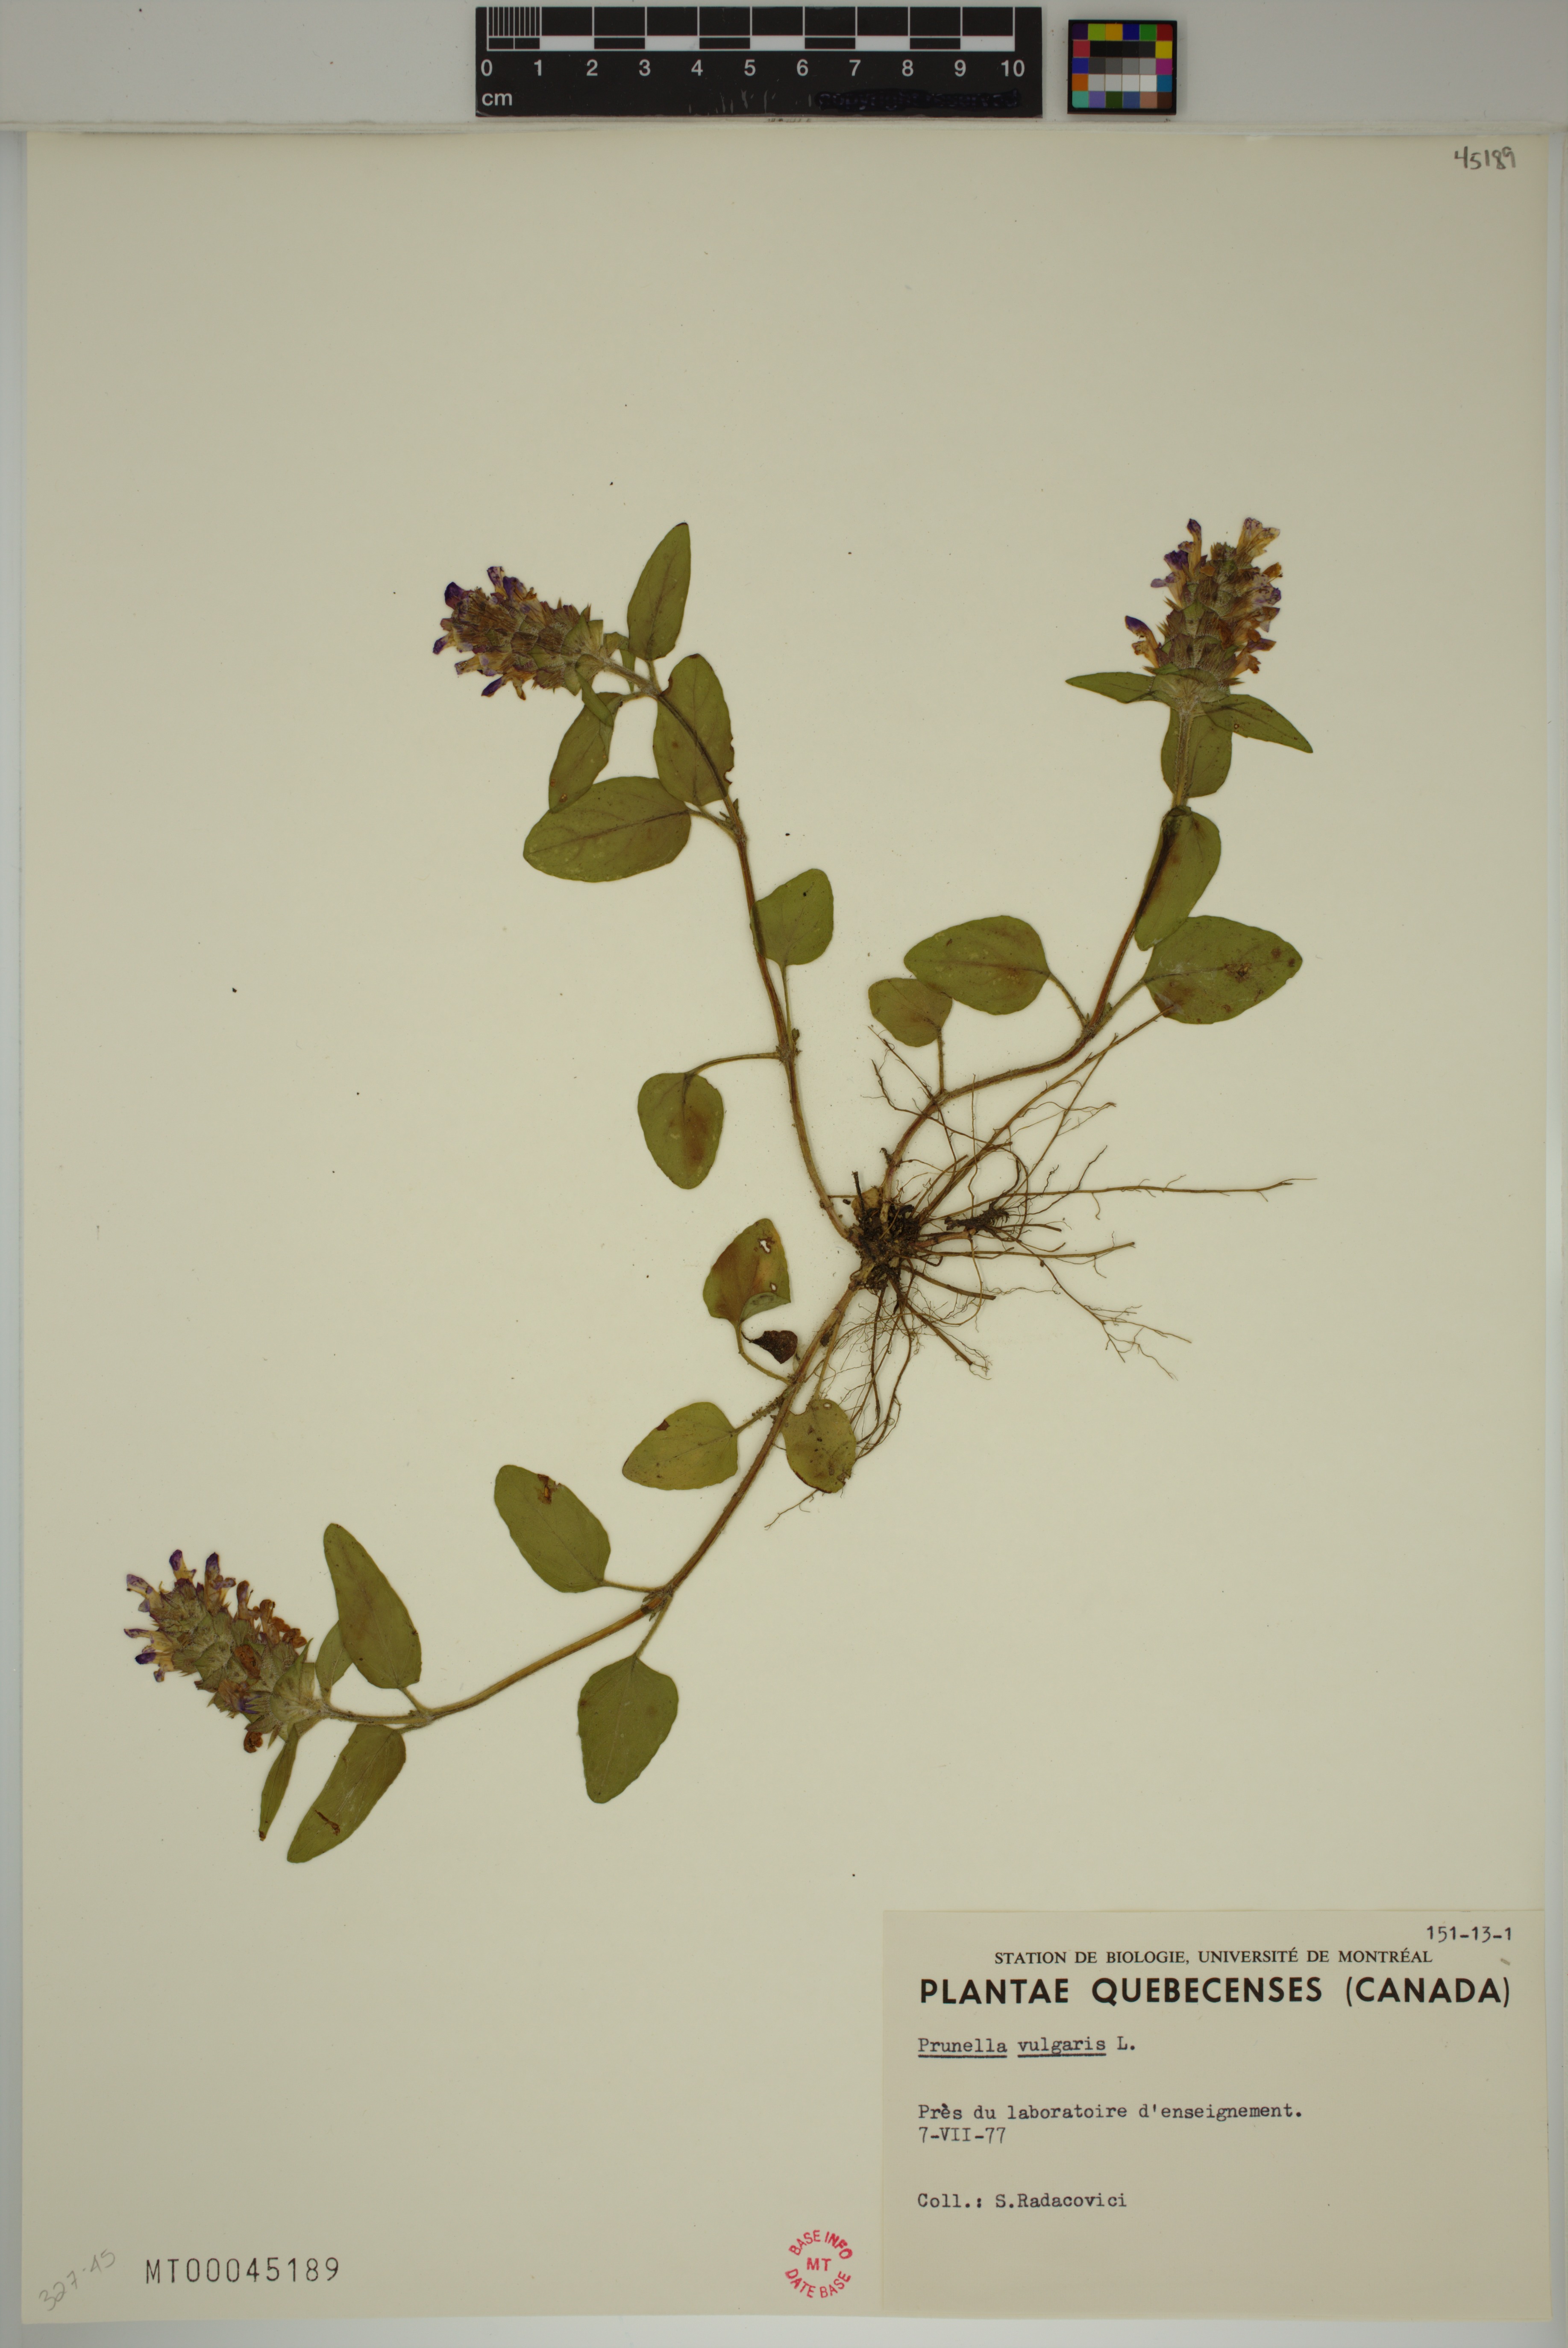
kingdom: Plantae
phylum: Tracheophyta
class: Magnoliopsida
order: Lamiales
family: Lamiaceae
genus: Prunella
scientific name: Prunella vulgaris
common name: Heal-all
